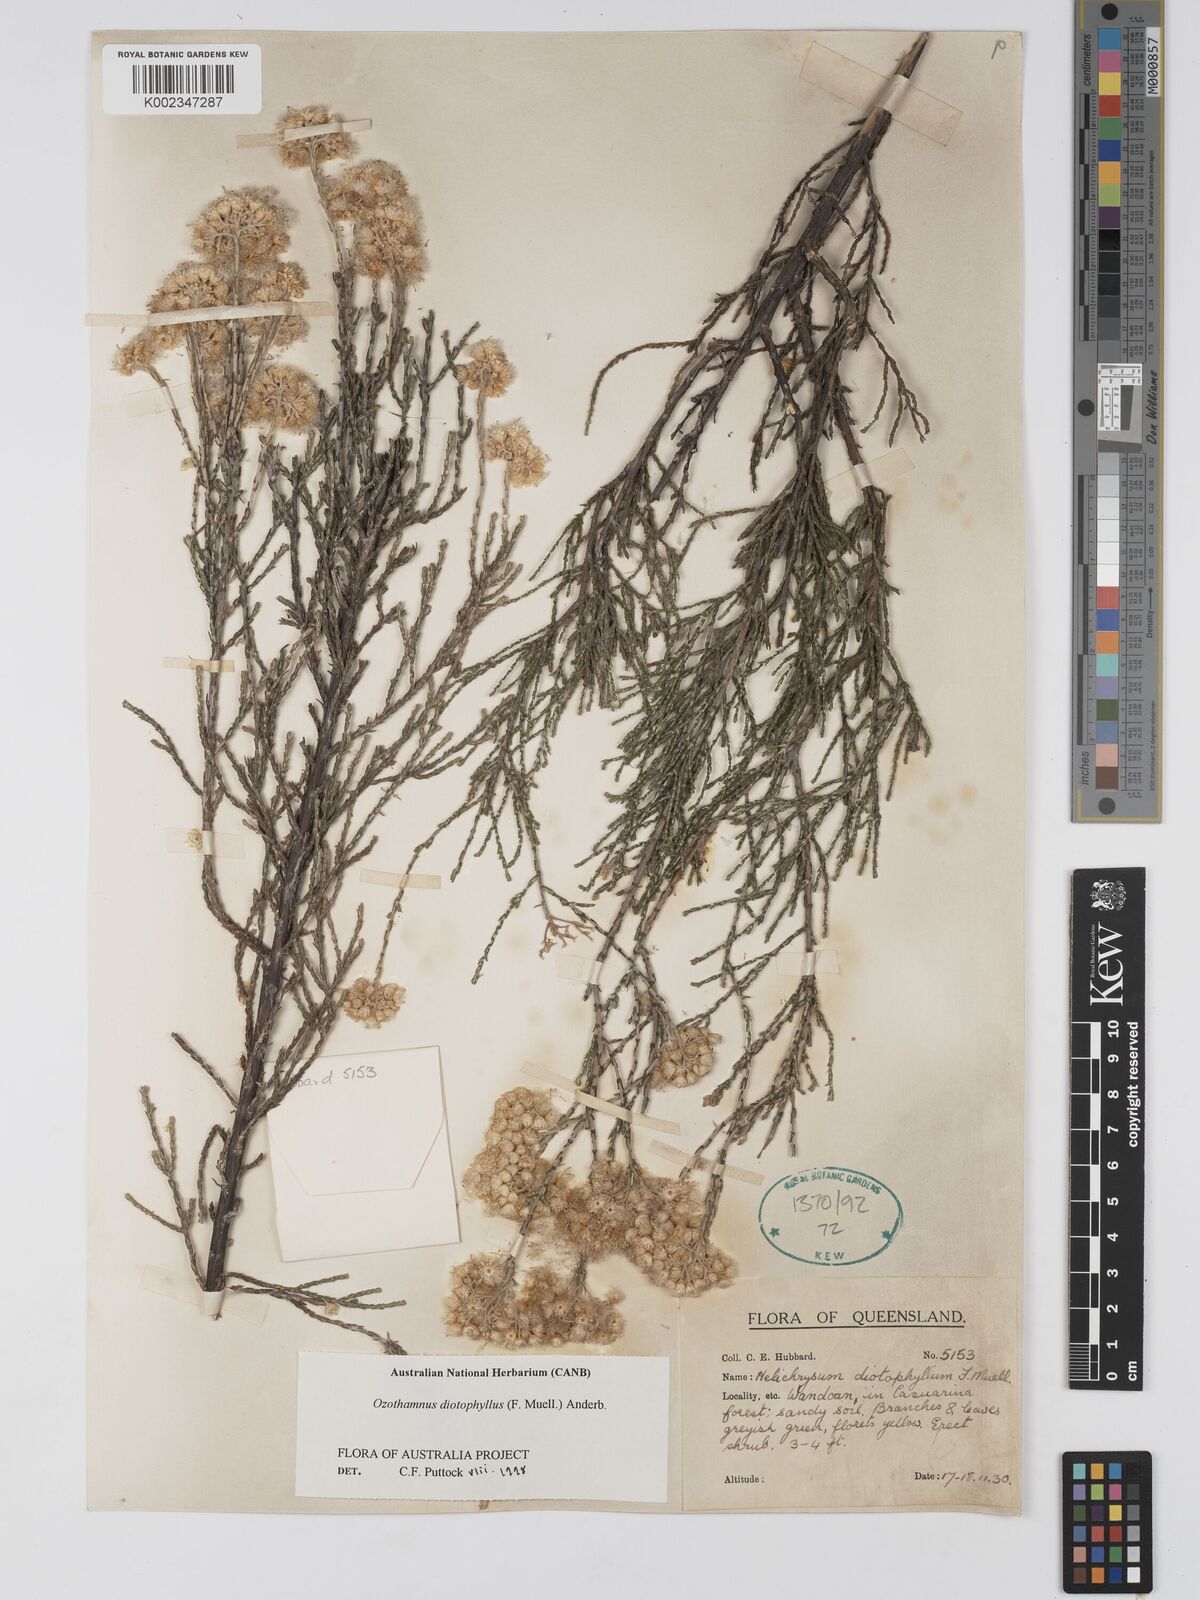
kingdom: Plantae
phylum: Tracheophyta
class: Magnoliopsida
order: Asterales
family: Asteraceae
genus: Ozothamnus
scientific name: Ozothamnus diotophyllus
